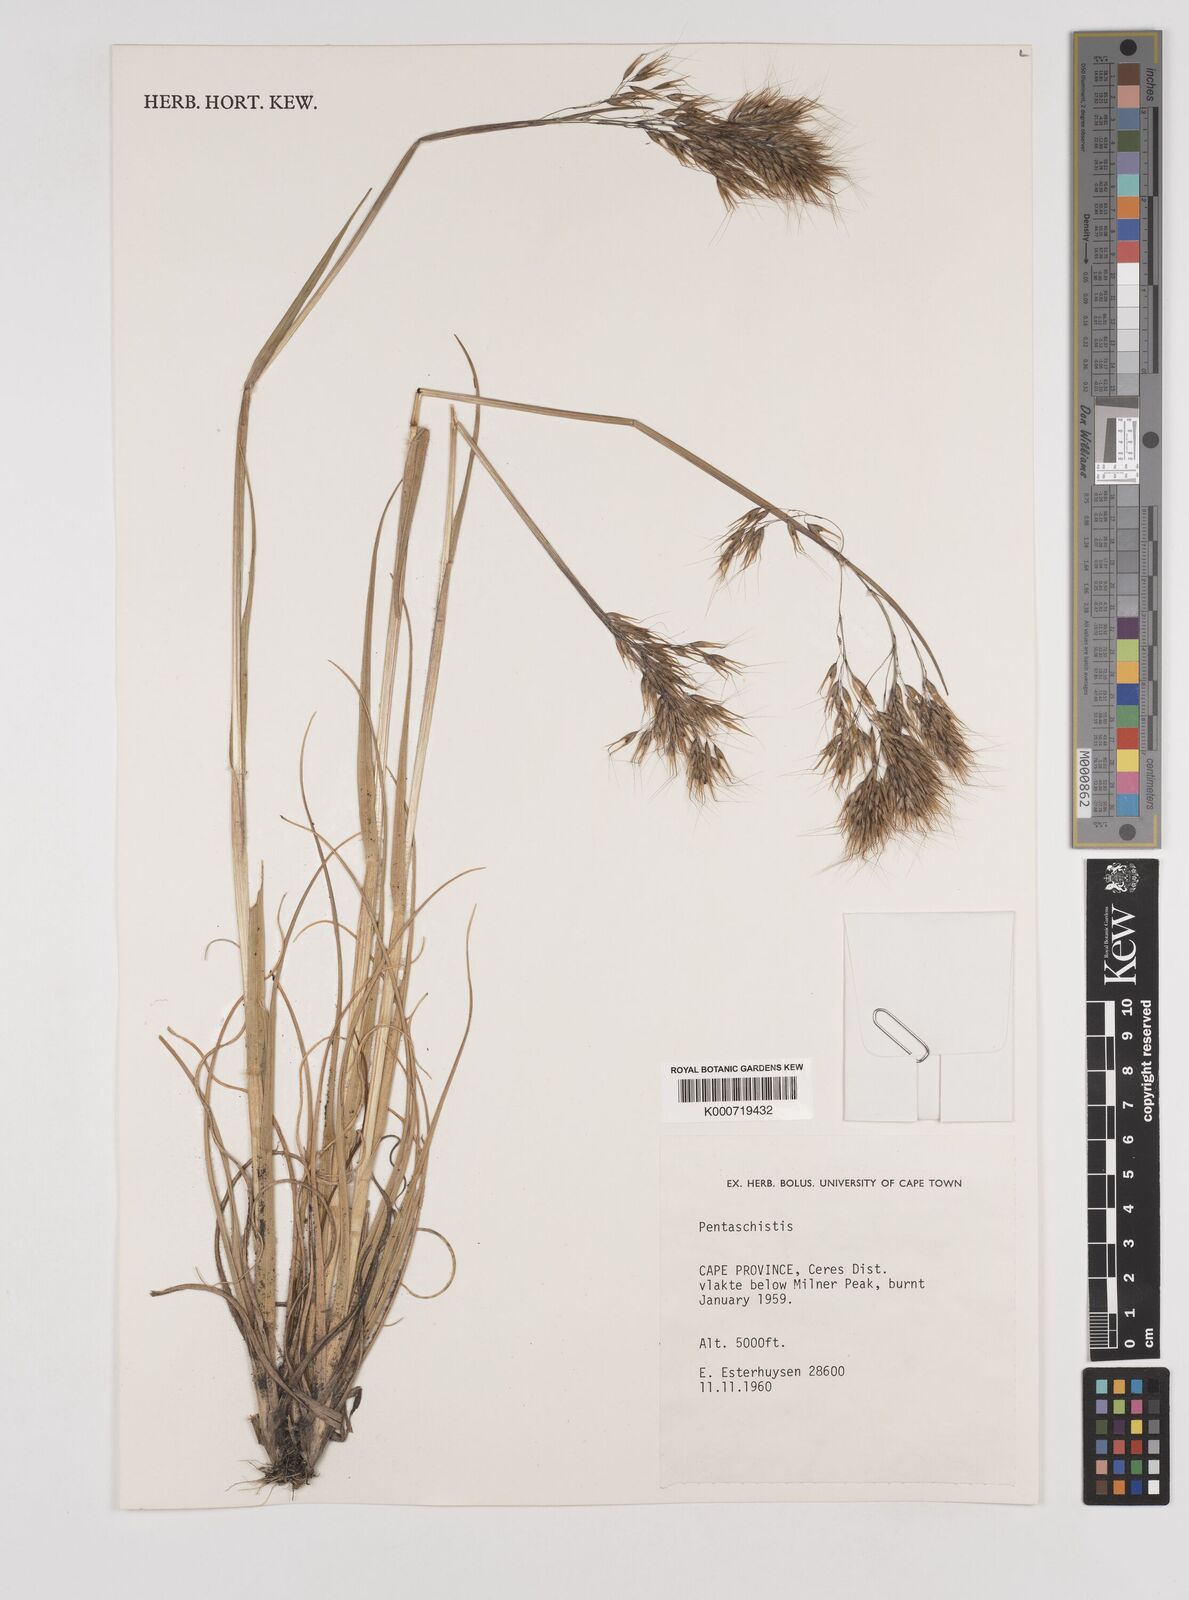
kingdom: Plantae
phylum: Tracheophyta
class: Liliopsida
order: Poales
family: Poaceae
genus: Pentameris
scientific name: Pentameris pseudopallescens
